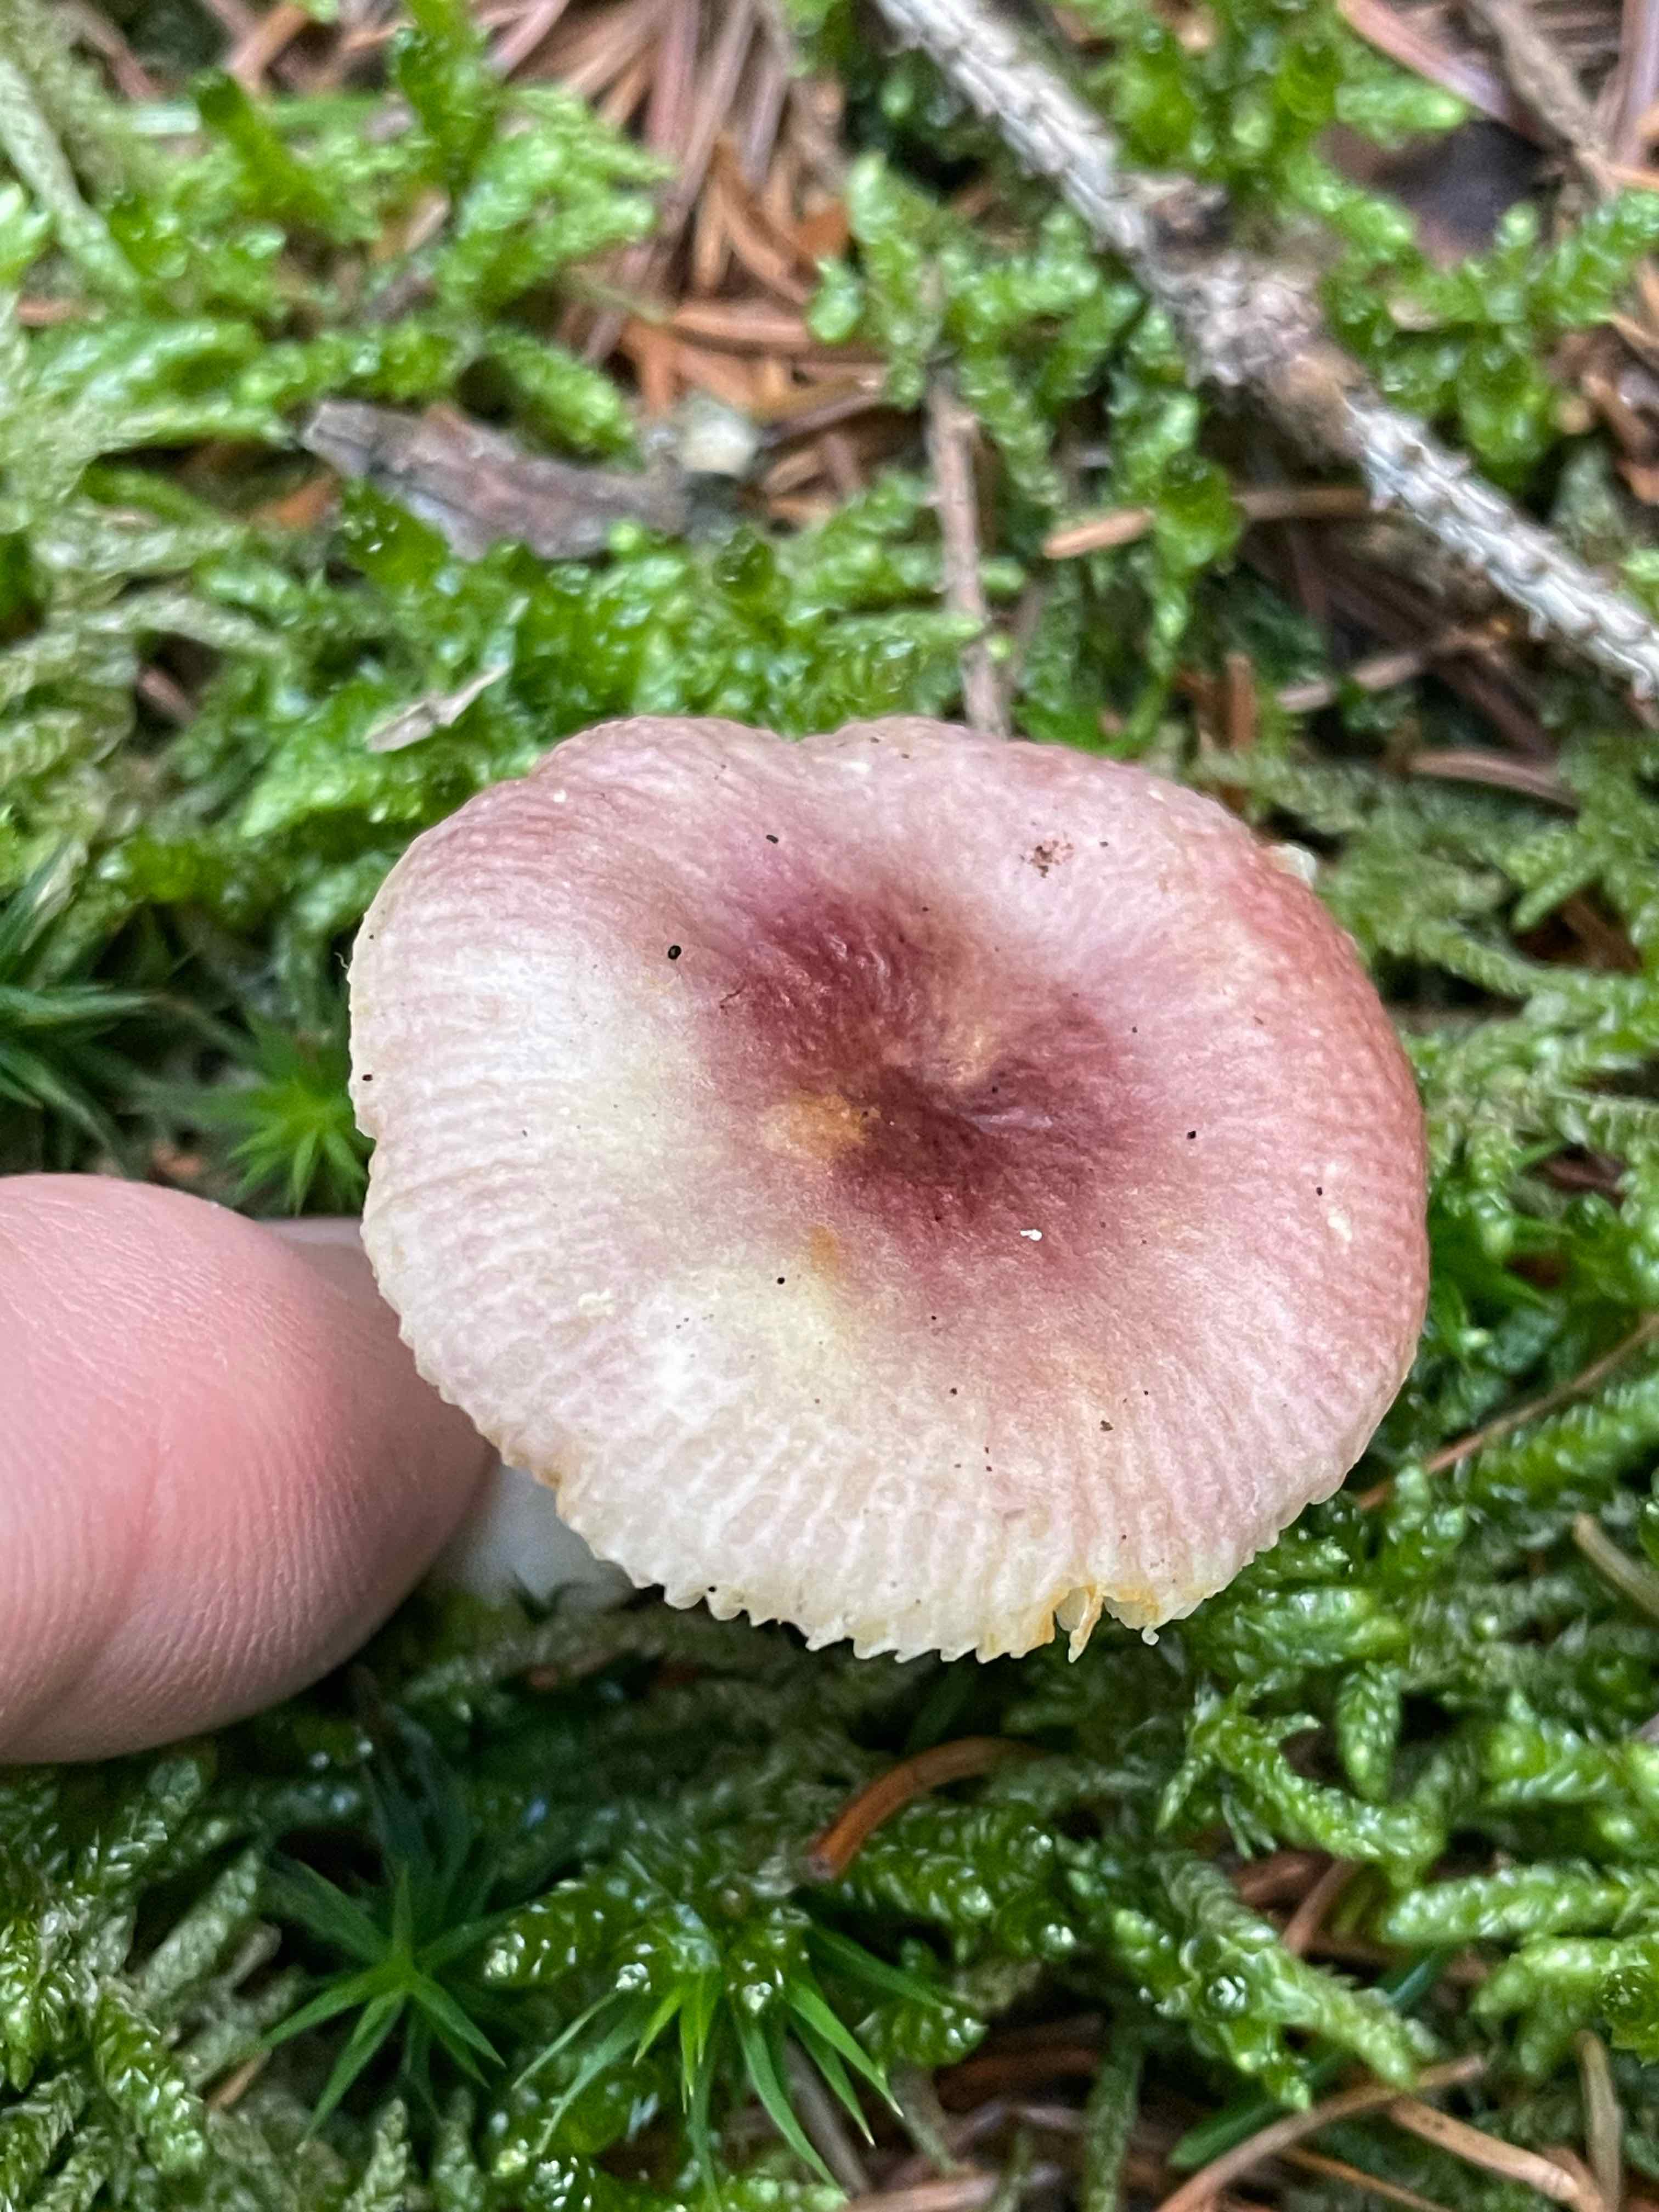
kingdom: Fungi
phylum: Basidiomycota
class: Agaricomycetes
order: Russulales
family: Russulaceae
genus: Russula
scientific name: Russula
